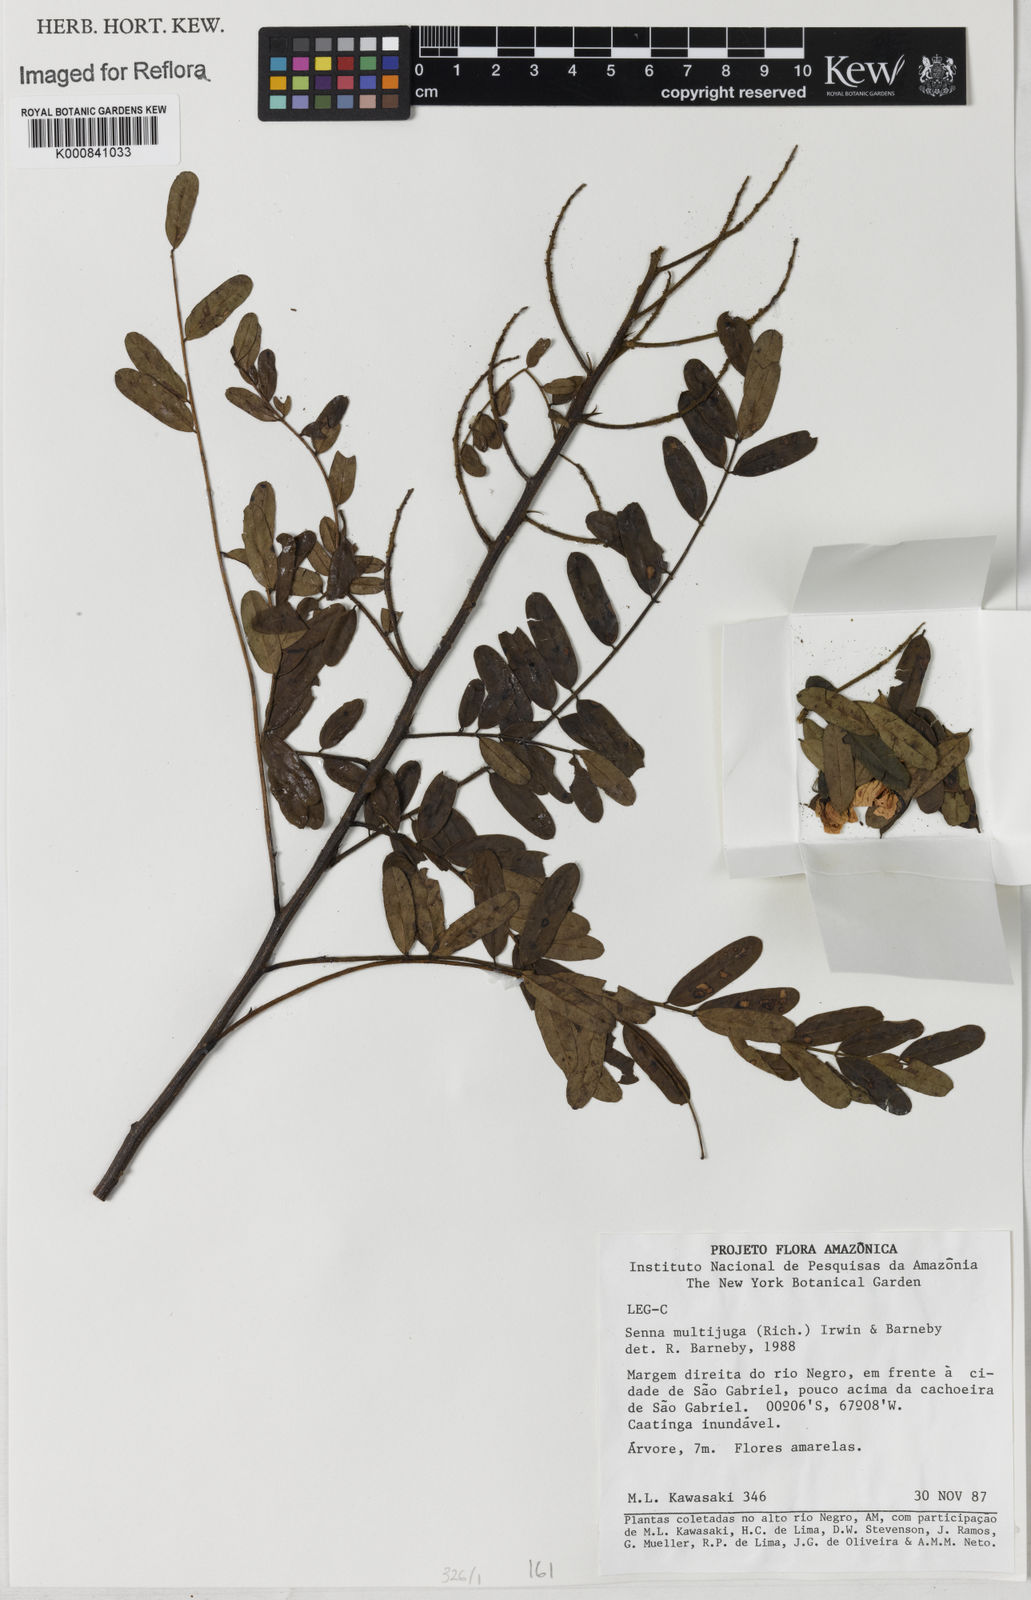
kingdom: Plantae
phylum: Tracheophyta
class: Magnoliopsida
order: Fabales
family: Fabaceae
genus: Senna
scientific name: Senna multijuga
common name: False sicklepod
